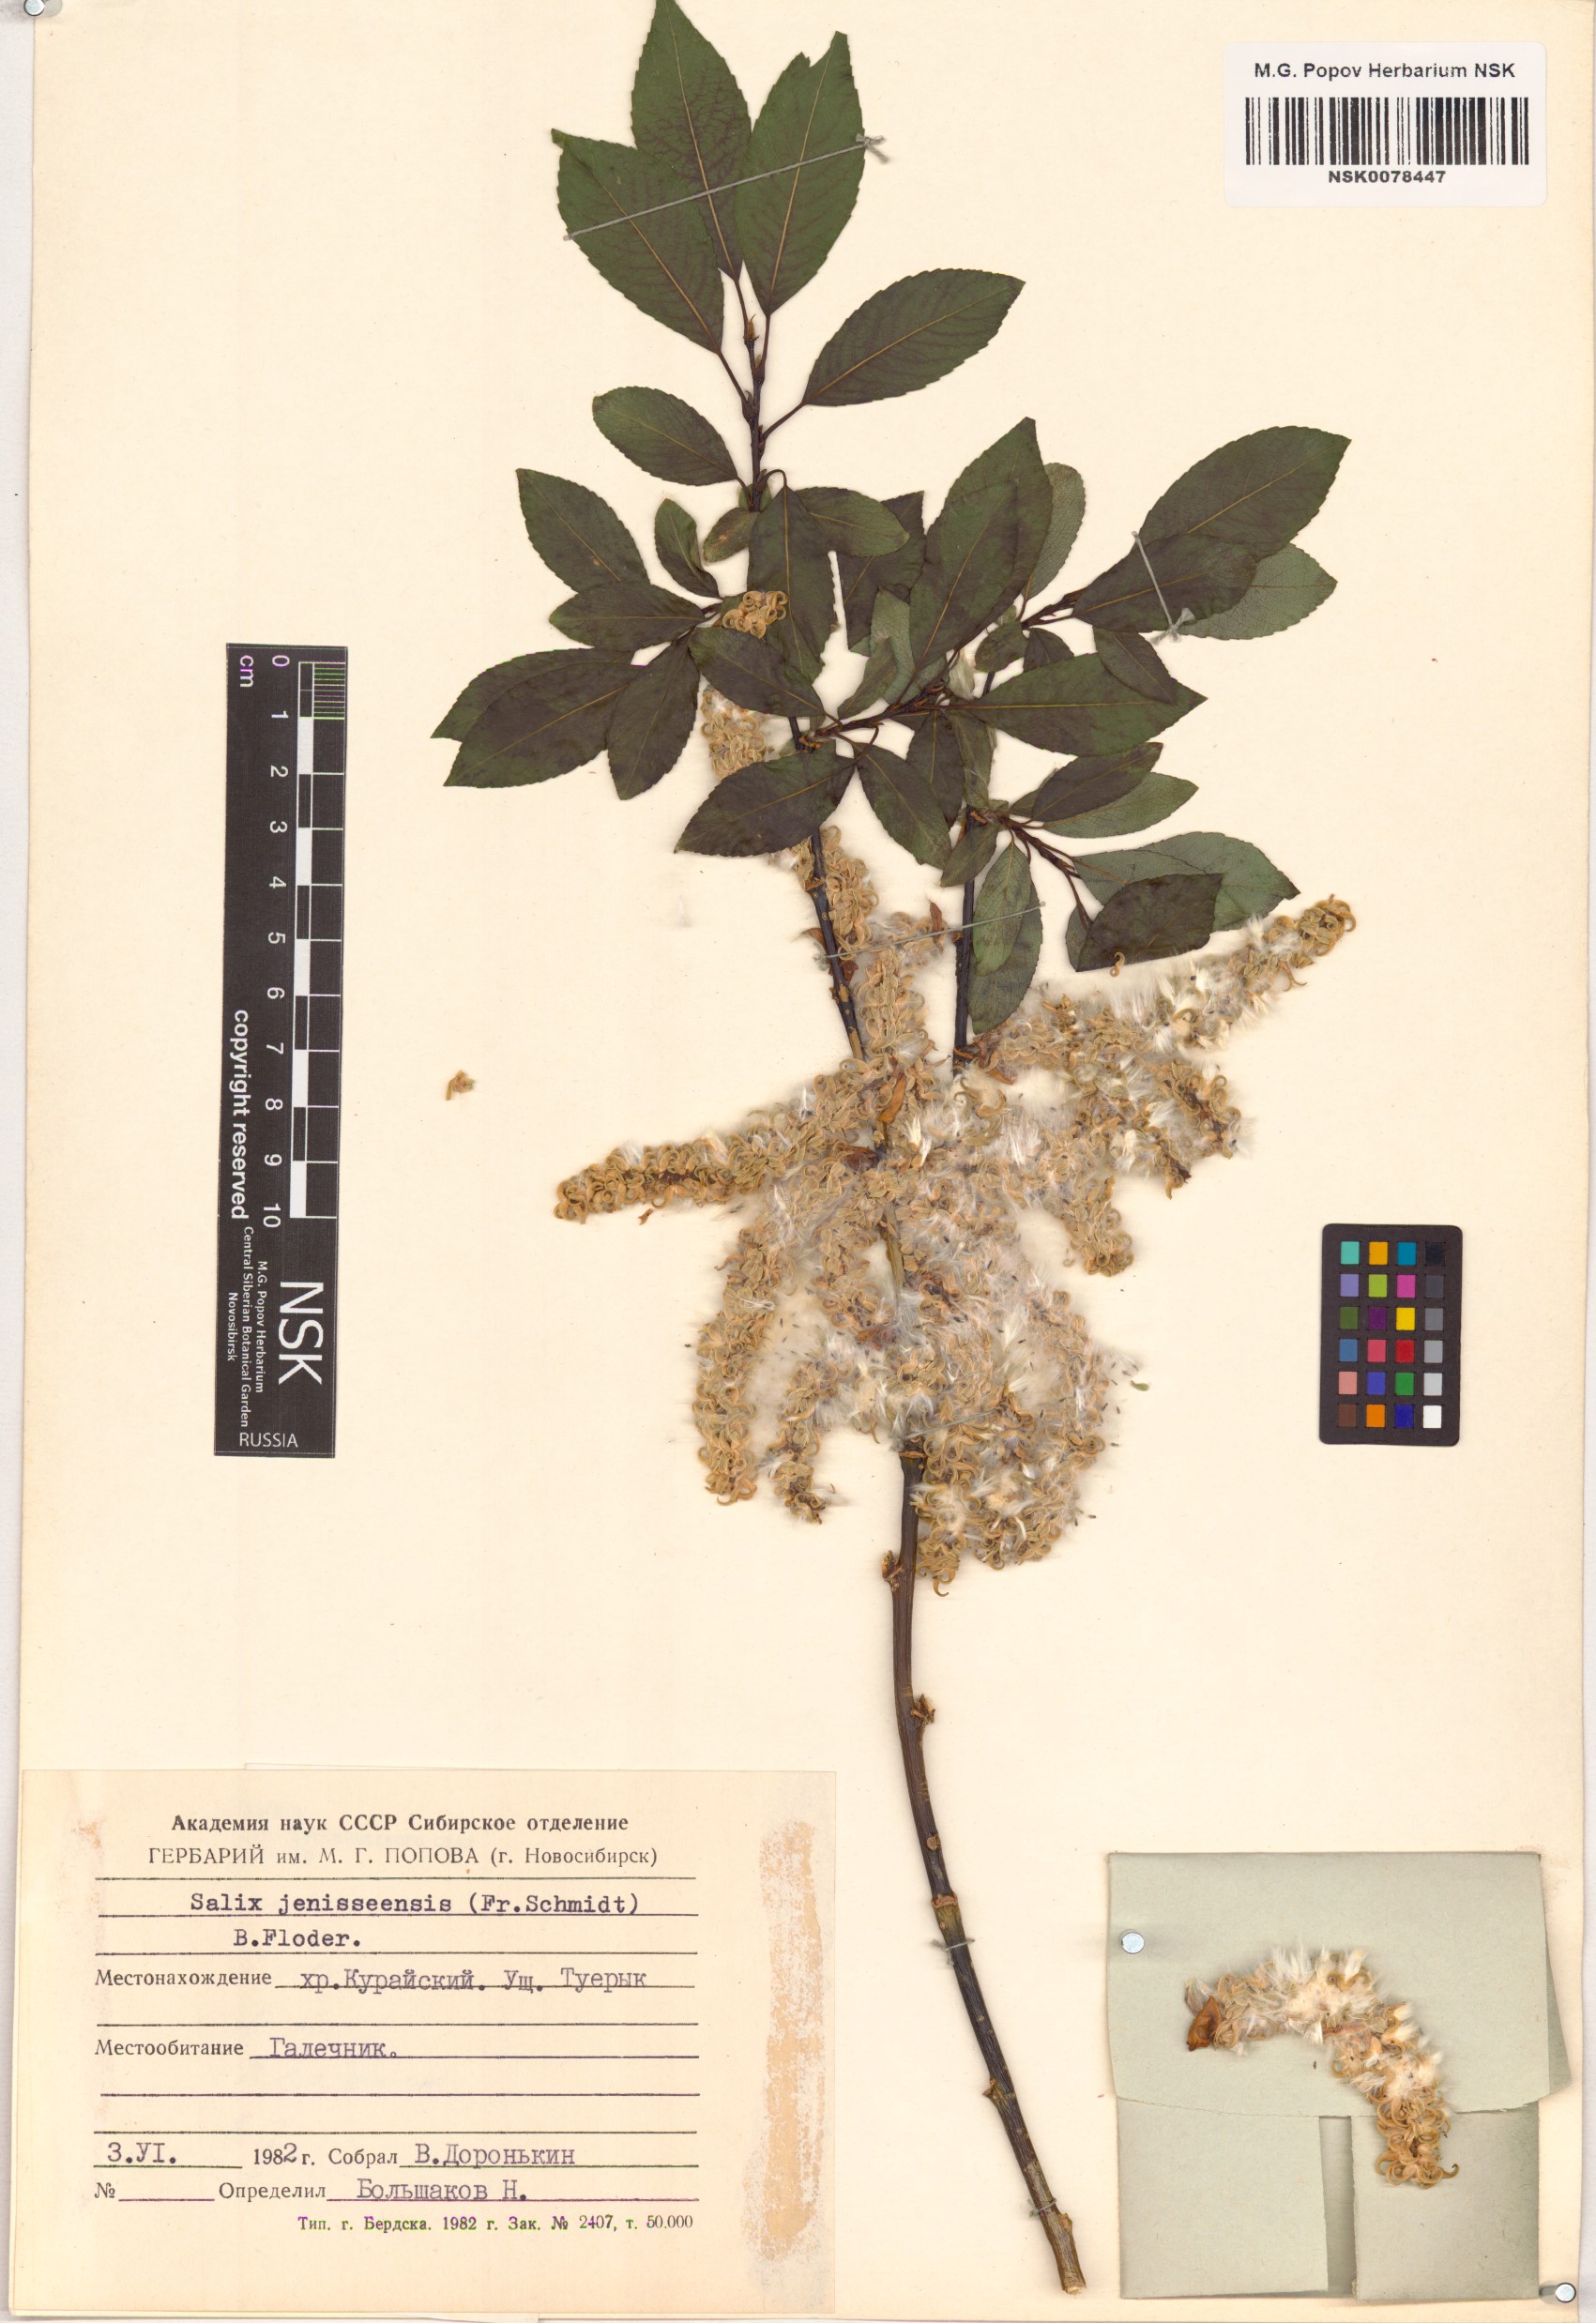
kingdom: Plantae
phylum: Tracheophyta
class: Magnoliopsida
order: Malpighiales
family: Salicaceae
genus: Salix
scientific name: Salix jenisseensis
